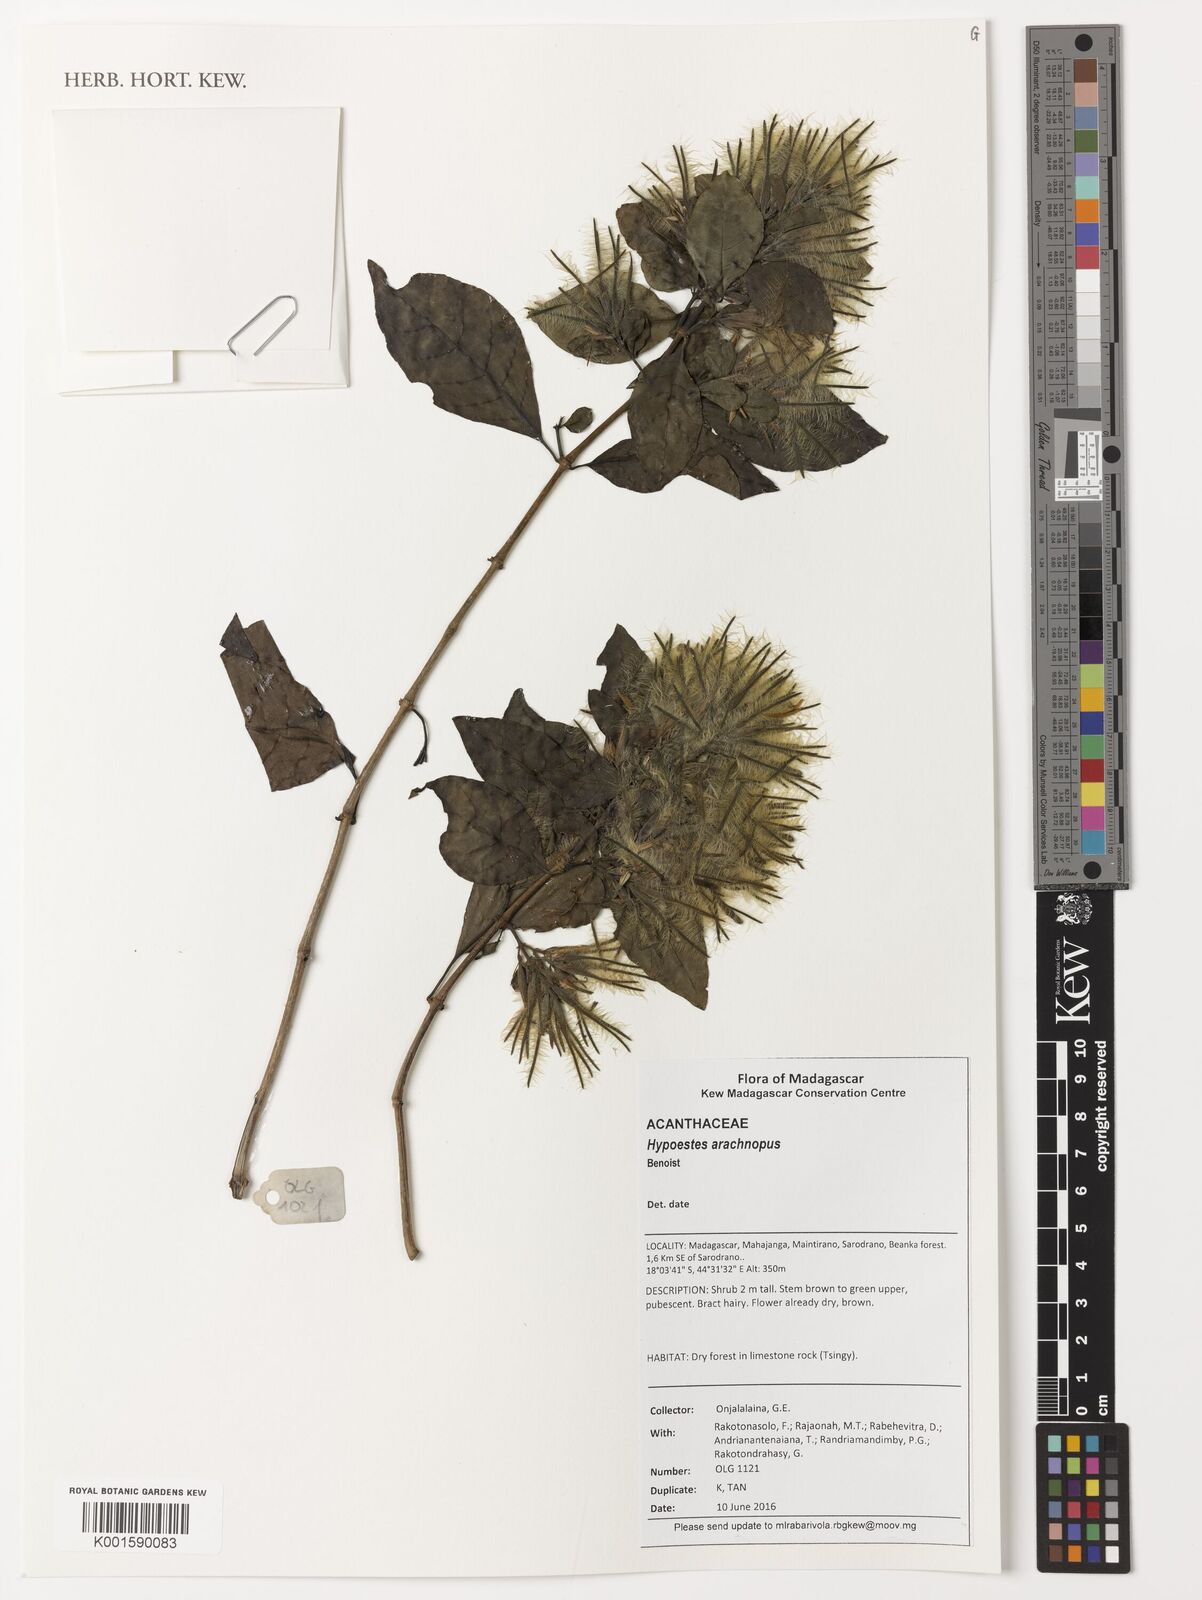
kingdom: Plantae
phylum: Tracheophyta
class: Magnoliopsida
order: Lamiales
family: Acanthaceae
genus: Hypoestes
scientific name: Hypoestes arachnopus
